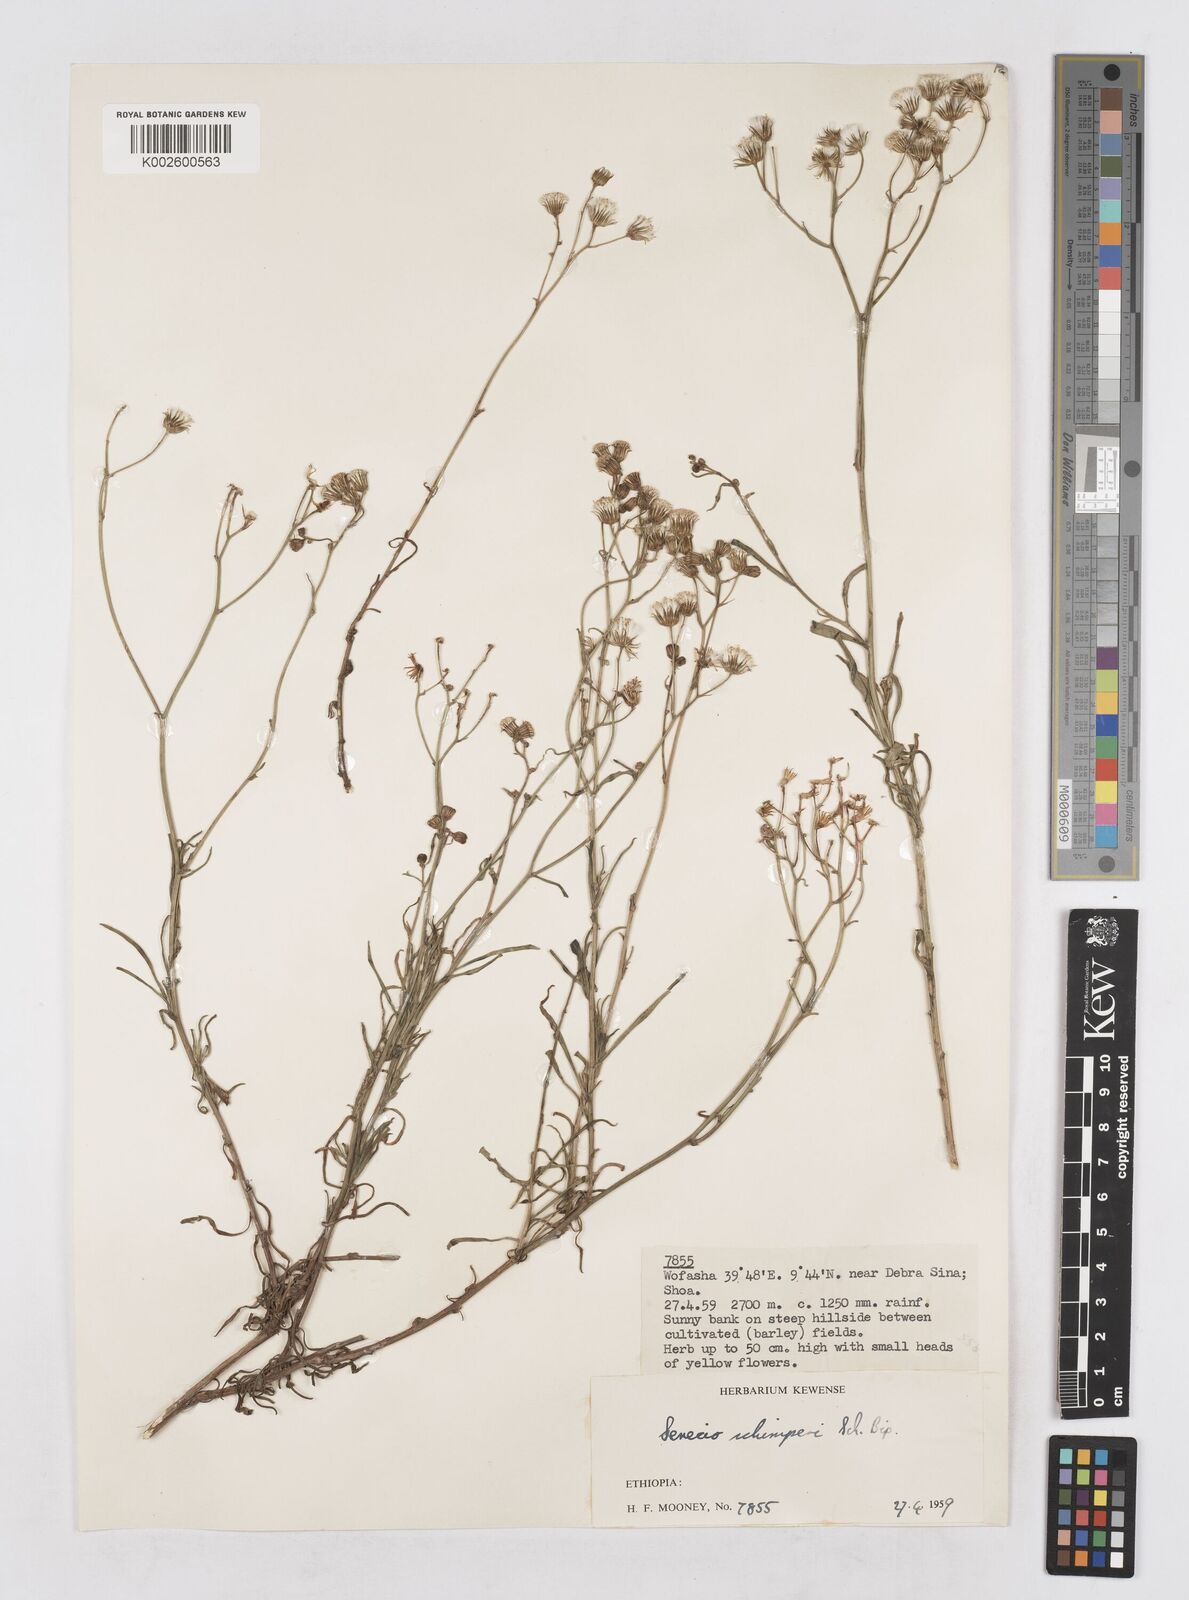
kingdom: Plantae
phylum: Tracheophyta
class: Magnoliopsida
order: Asterales
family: Asteraceae
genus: Senecio
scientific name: Senecio schimperi
